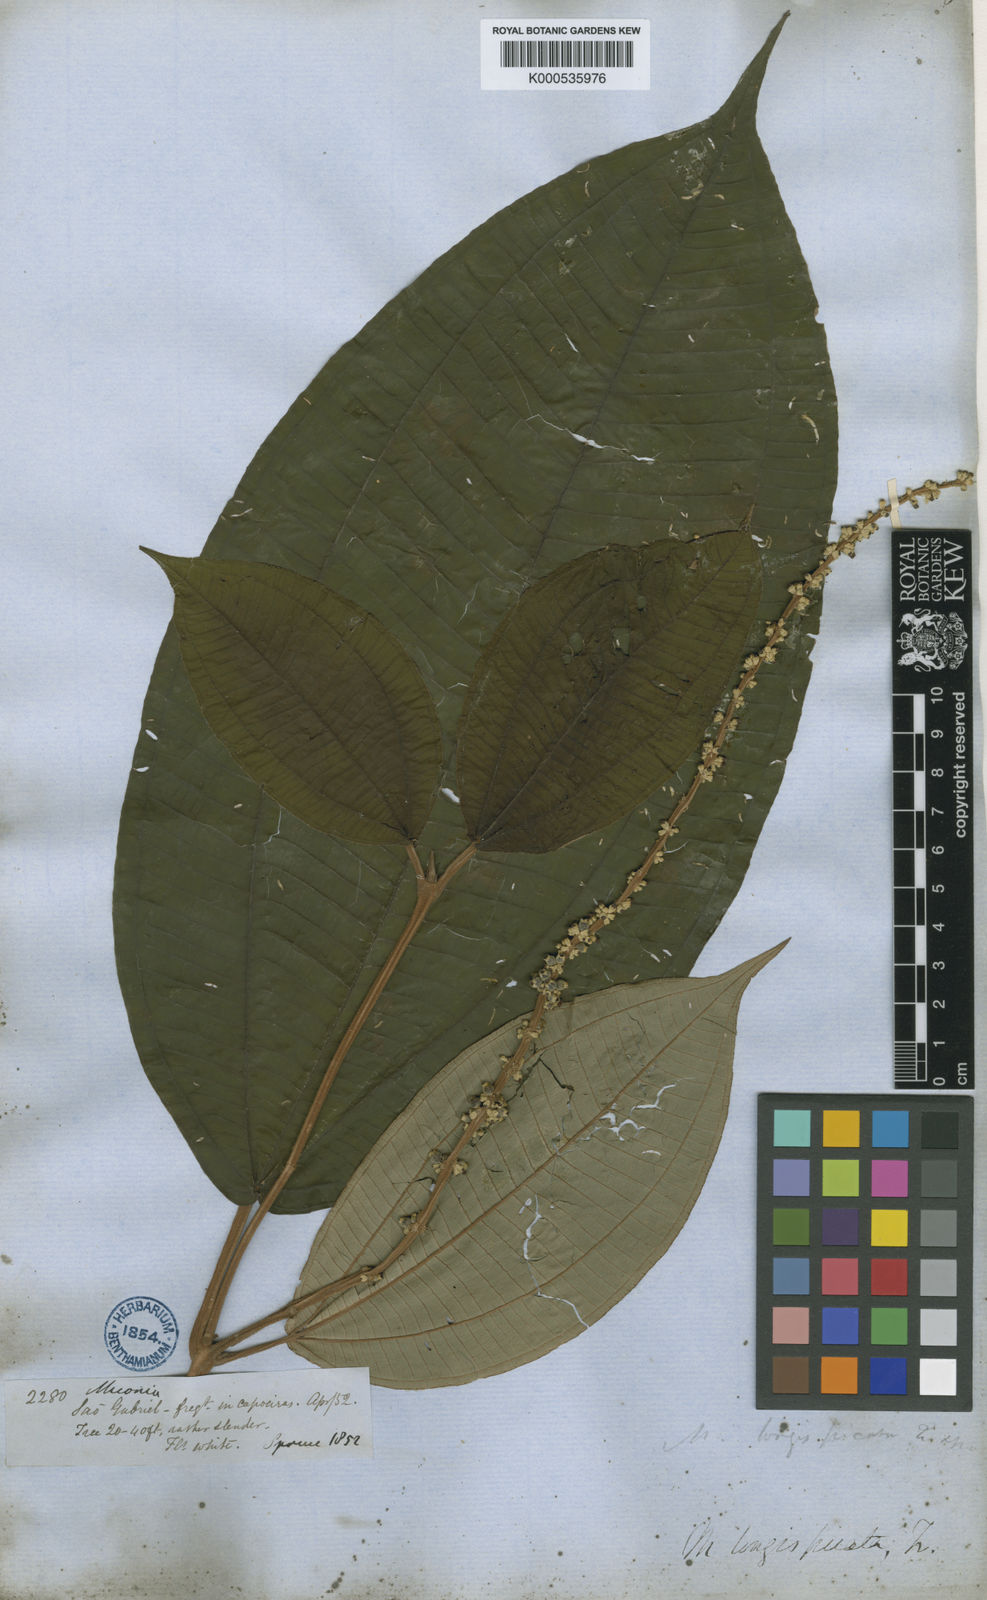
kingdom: Plantae
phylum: Tracheophyta
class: Magnoliopsida
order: Myrtales
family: Melastomataceae
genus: Miconia
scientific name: Miconia longispicata
